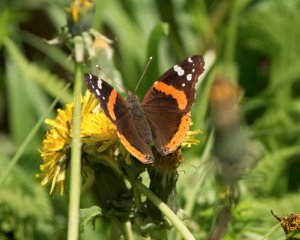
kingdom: Animalia
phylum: Arthropoda
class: Insecta
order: Lepidoptera
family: Nymphalidae
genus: Vanessa
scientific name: Vanessa atalanta
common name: Red Admiral
